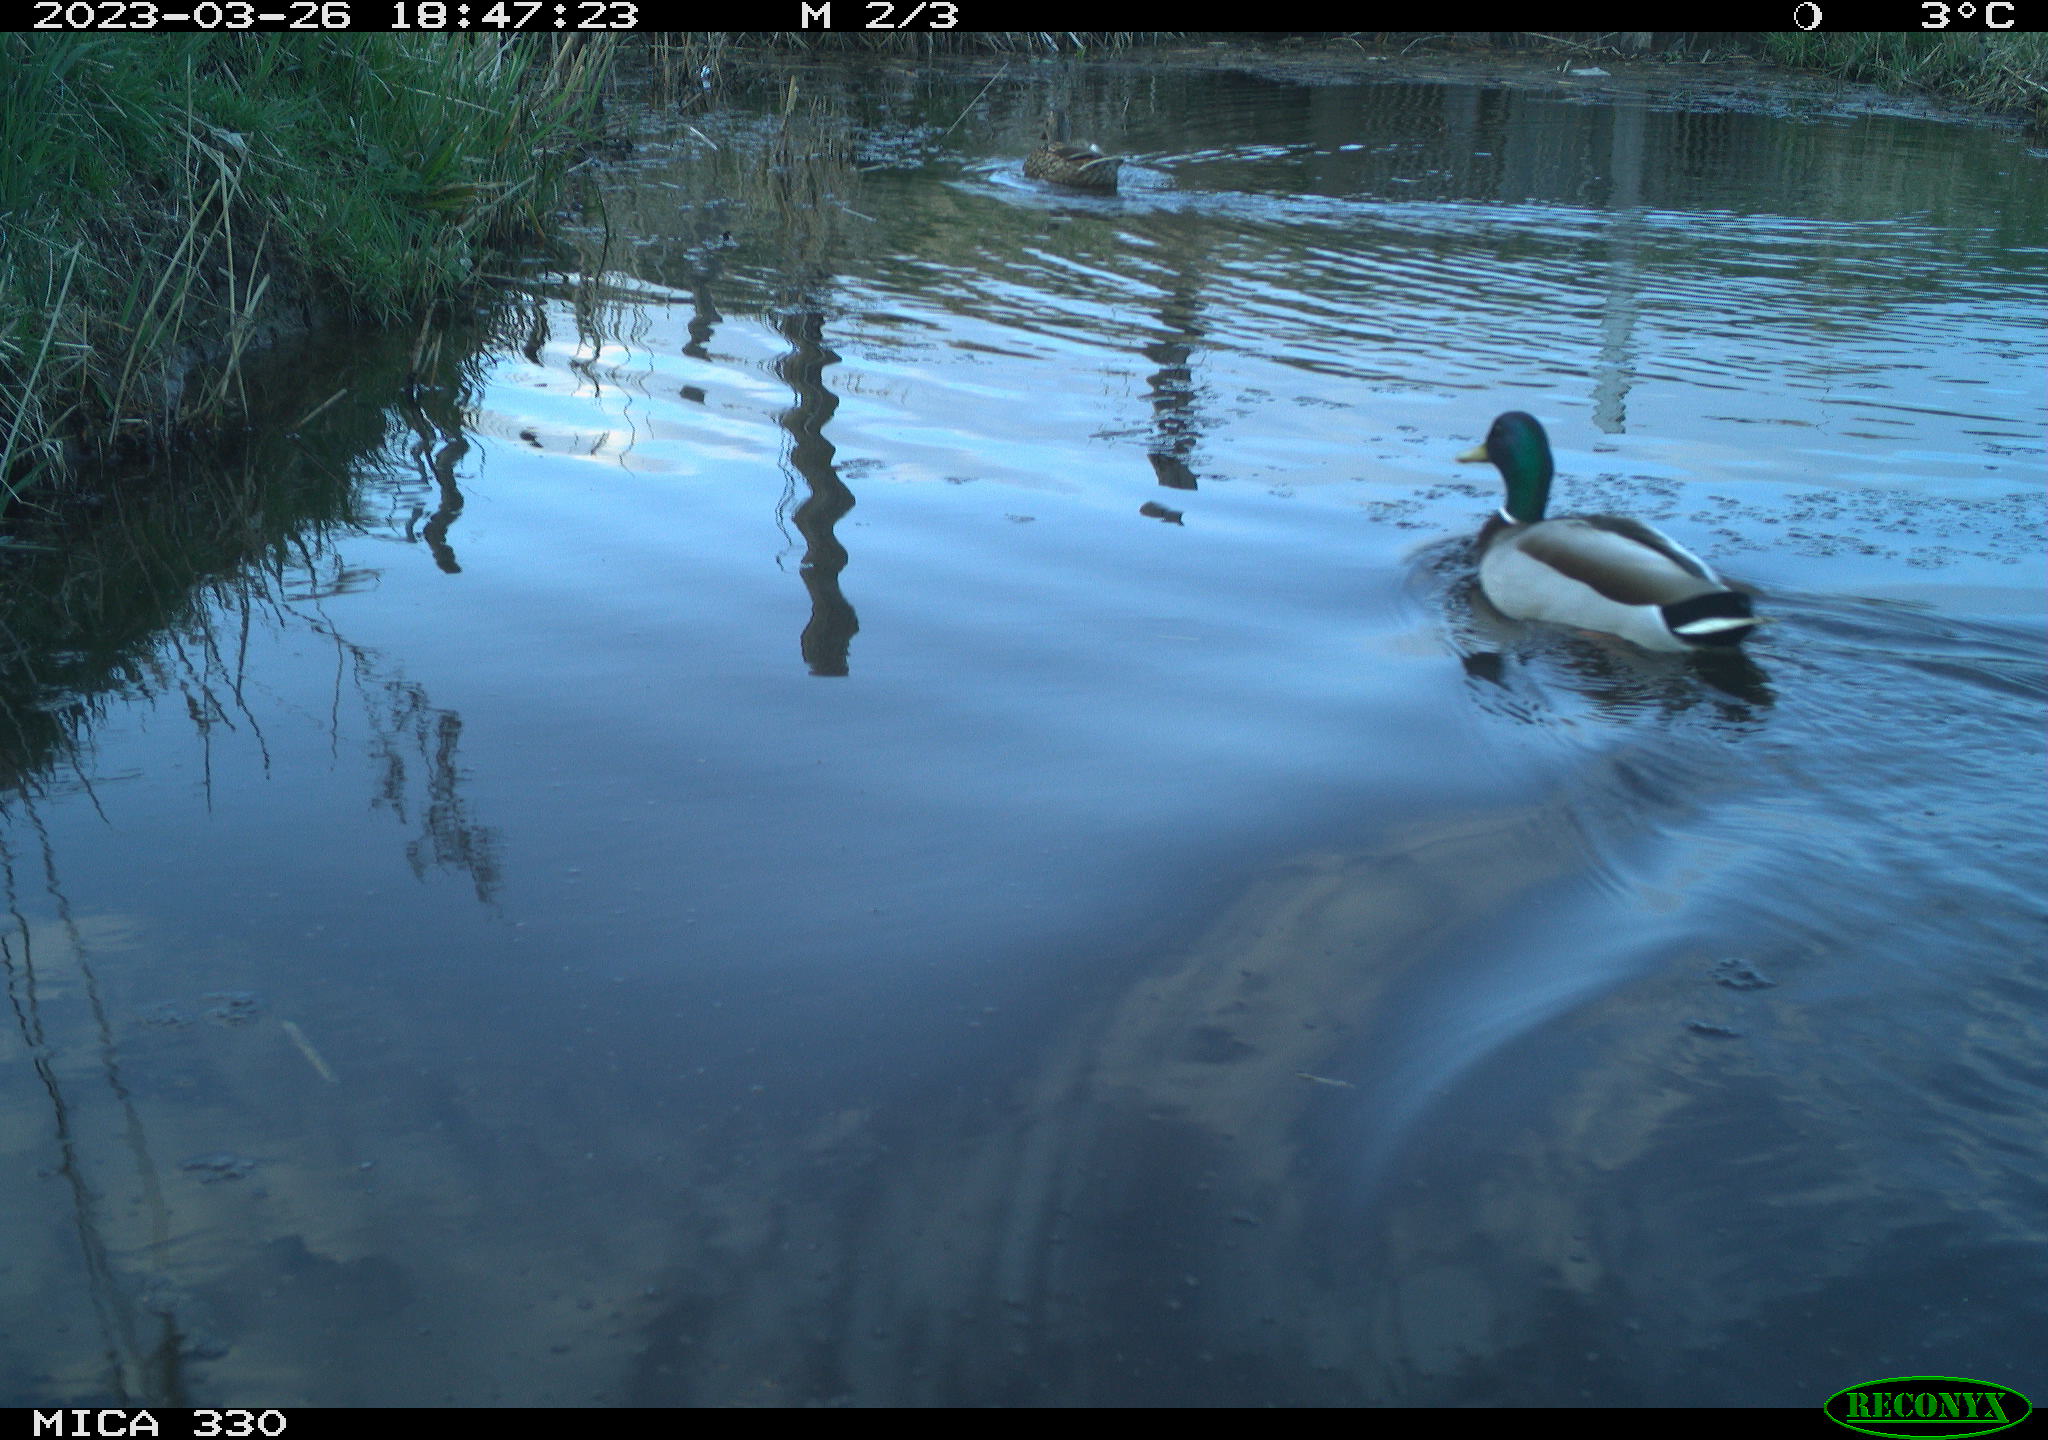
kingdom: Animalia
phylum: Chordata
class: Aves
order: Anseriformes
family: Anatidae
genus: Anas
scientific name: Anas
